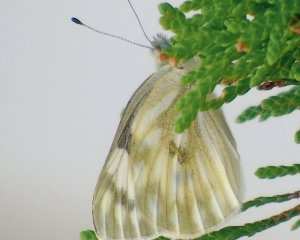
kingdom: Animalia
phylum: Arthropoda
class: Insecta
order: Lepidoptera
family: Pieridae
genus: Pontia
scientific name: Pontia occidentalis
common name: Western White
